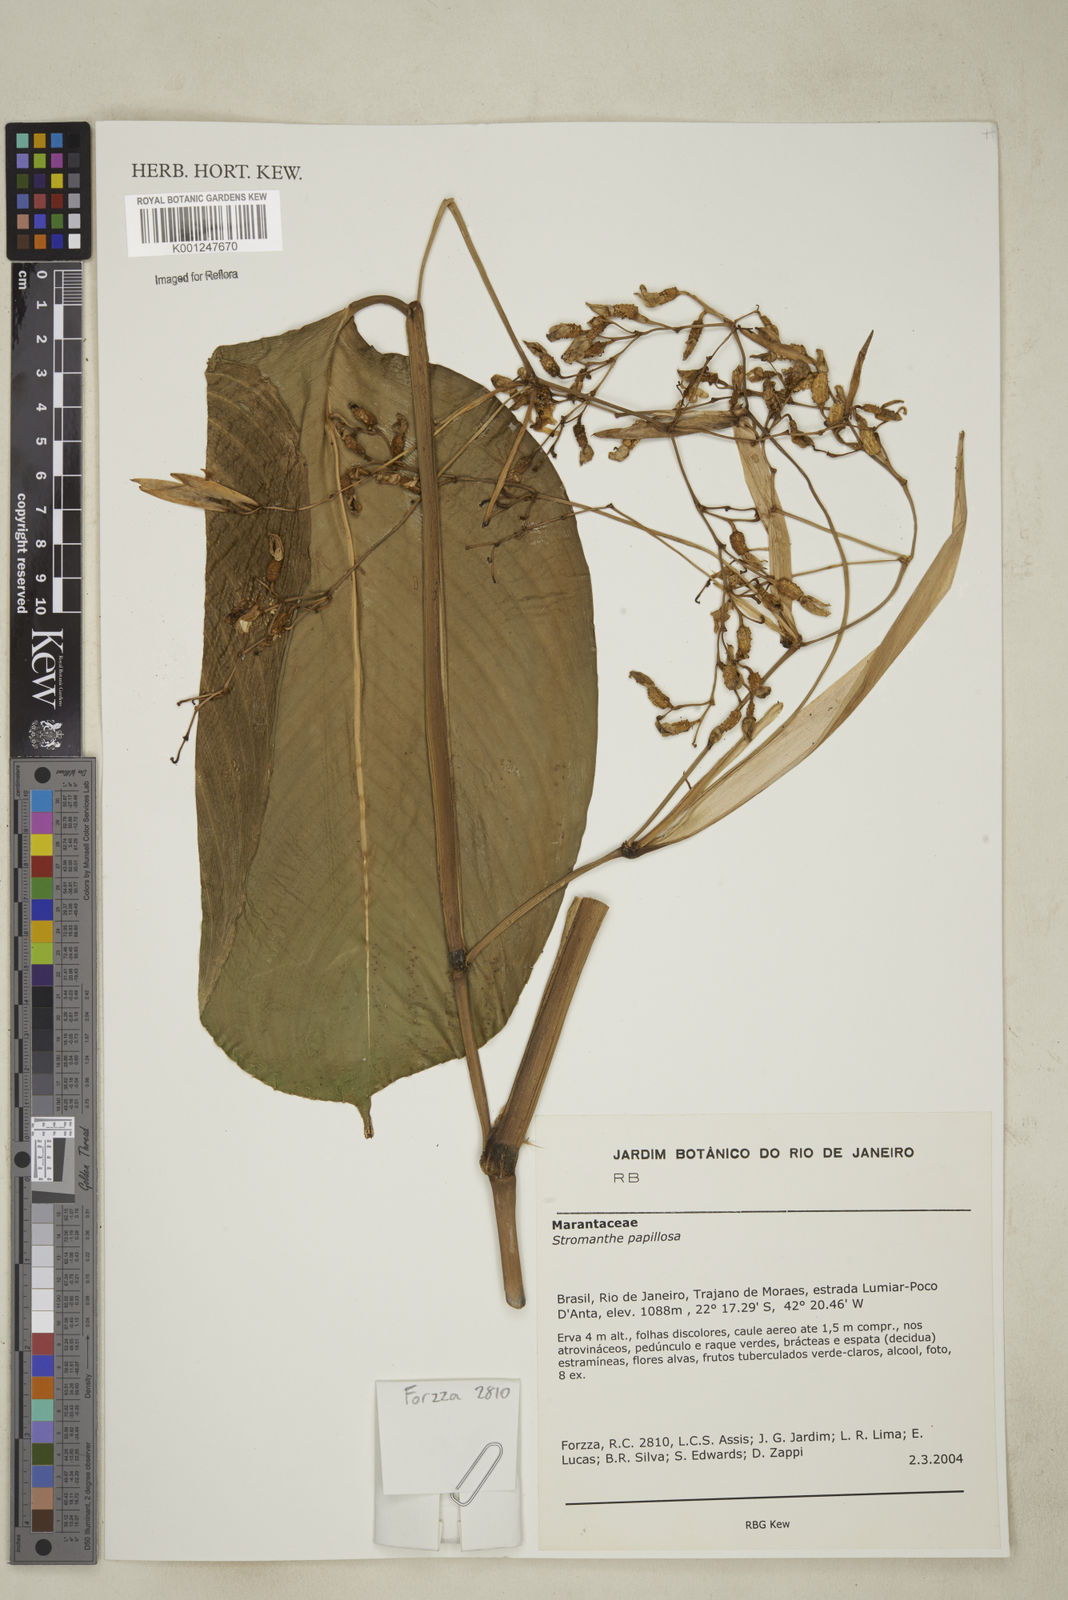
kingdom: Plantae
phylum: Tracheophyta
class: Liliopsida
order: Zingiberales
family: Marantaceae
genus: Stromanthe
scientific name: Stromanthe papillosa
